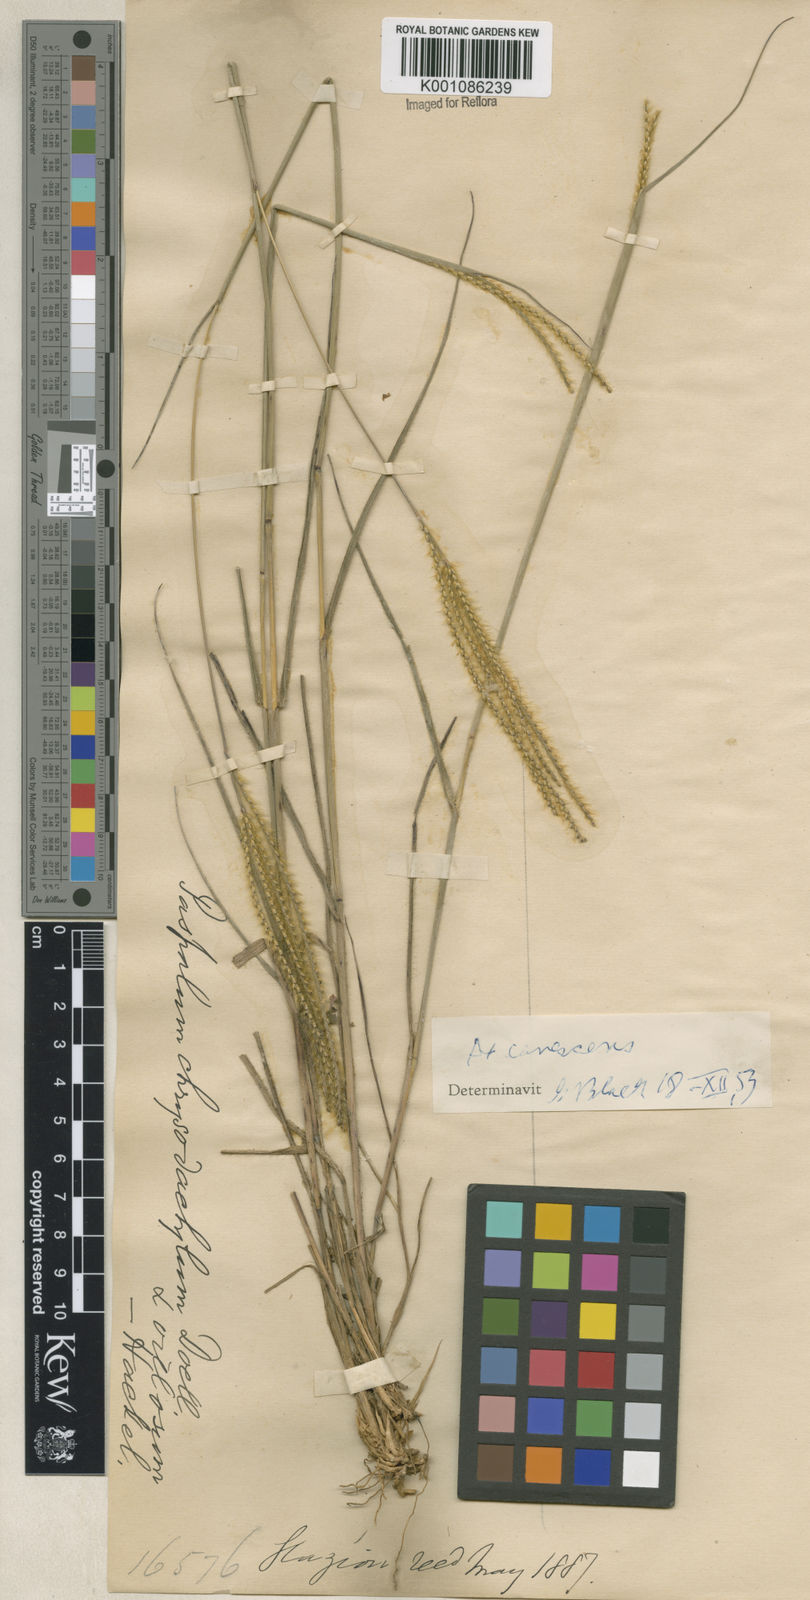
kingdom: Plantae
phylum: Tracheophyta
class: Liliopsida
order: Poales
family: Poaceae
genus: Axonopus
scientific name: Axonopus aureus
